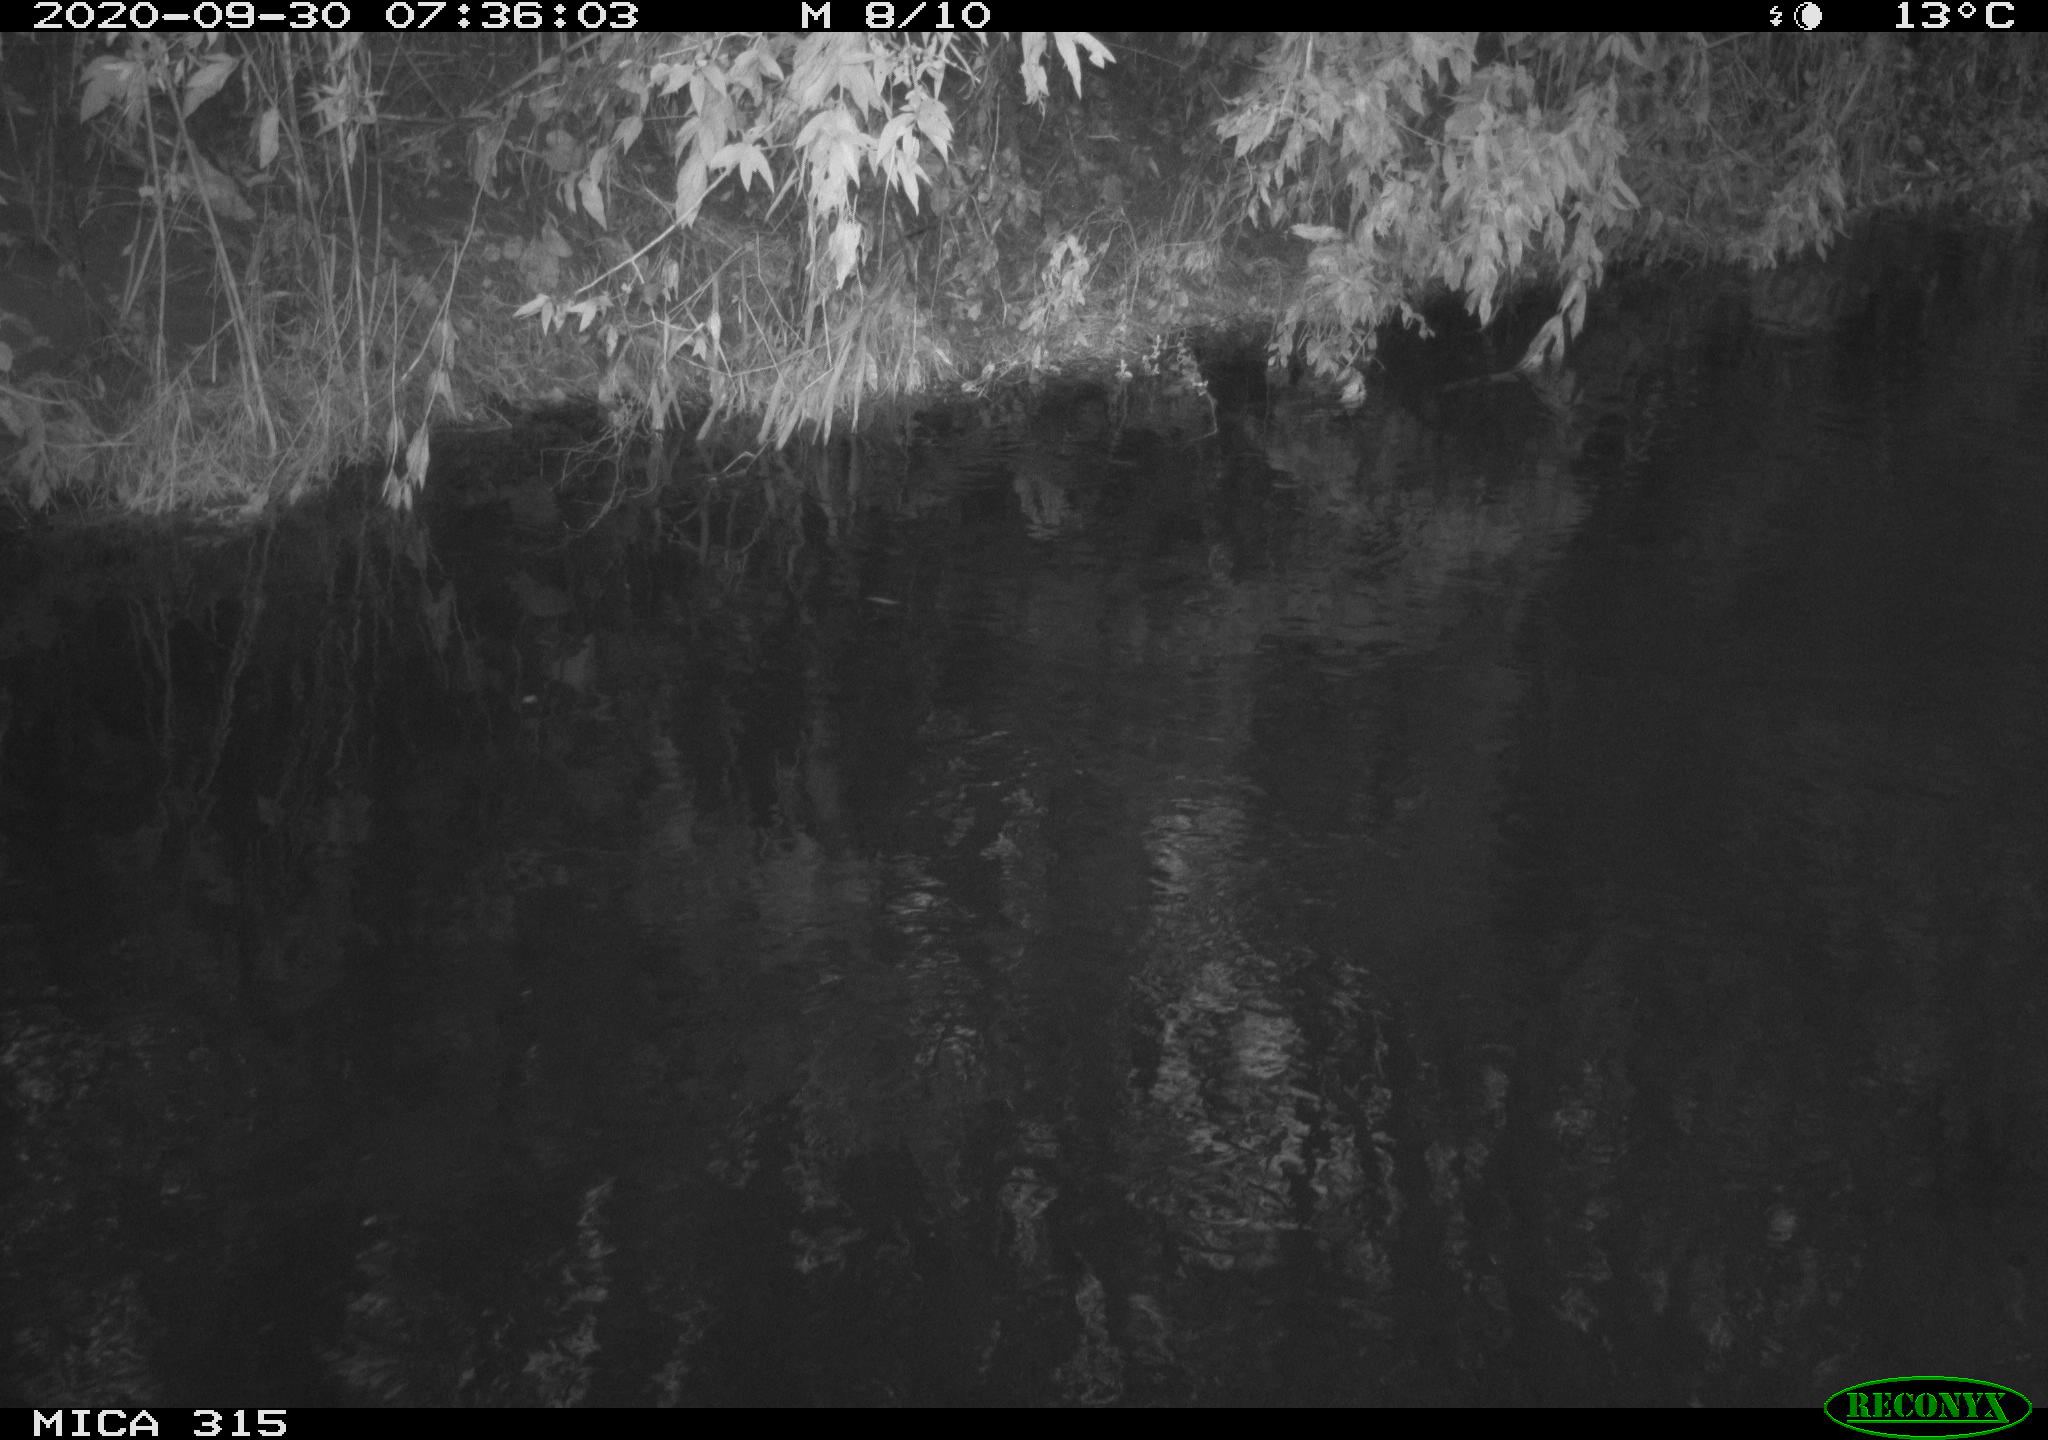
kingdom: Animalia
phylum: Chordata
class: Aves
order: Gruiformes
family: Rallidae
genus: Gallinula
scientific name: Gallinula chloropus
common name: Common moorhen
